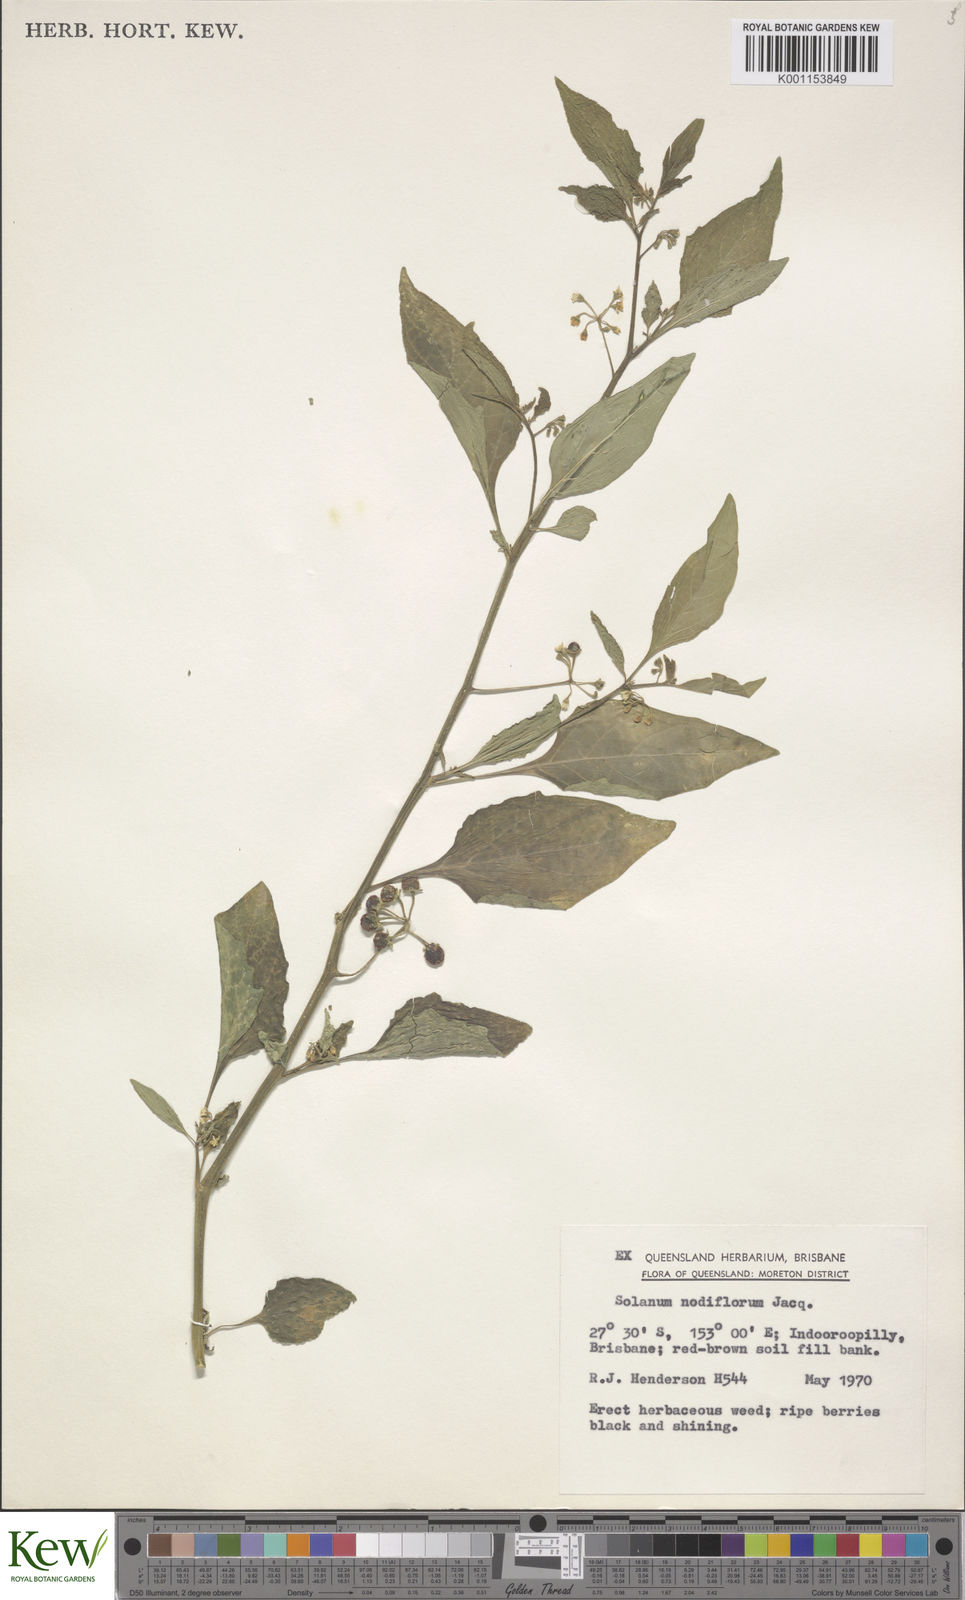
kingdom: Plantae
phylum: Tracheophyta
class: Magnoliopsida
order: Solanales
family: Solanaceae
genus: Solanum
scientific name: Solanum americanum
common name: American black nightshade
